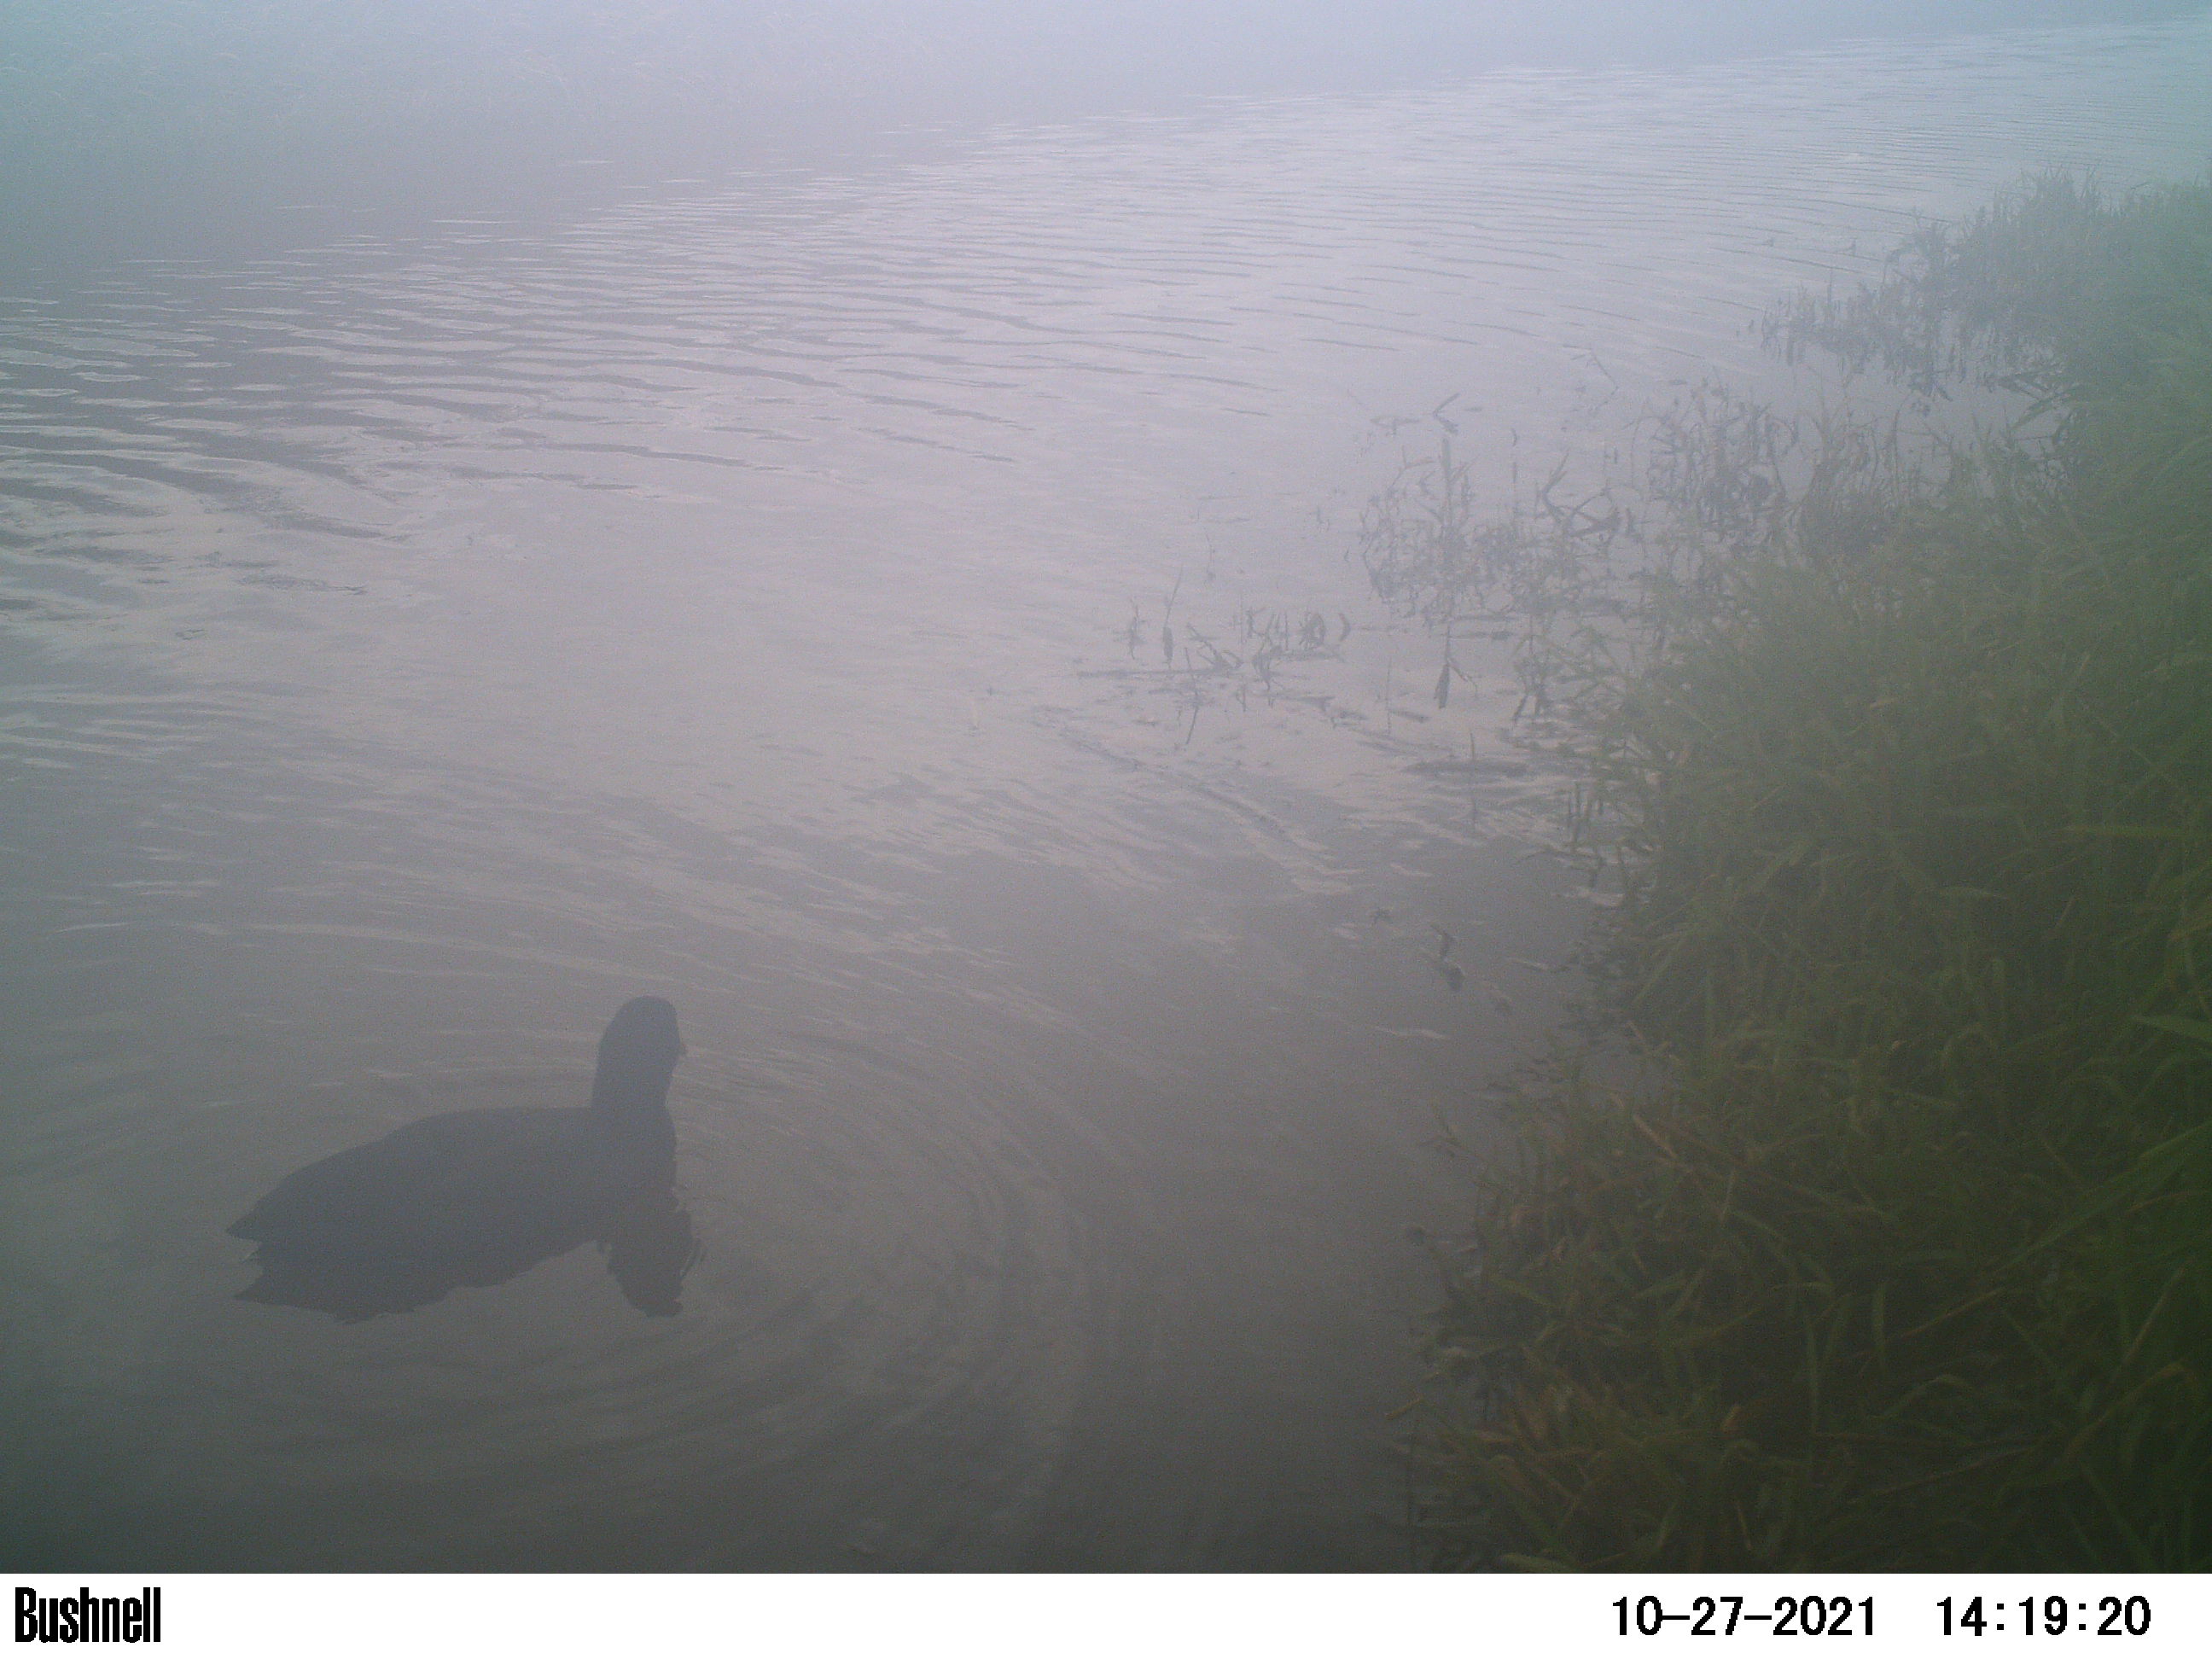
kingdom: Animalia
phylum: Chordata
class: Aves
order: Gruiformes
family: Rallidae
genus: Fulica
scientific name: Fulica atra
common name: Eurasian coot
